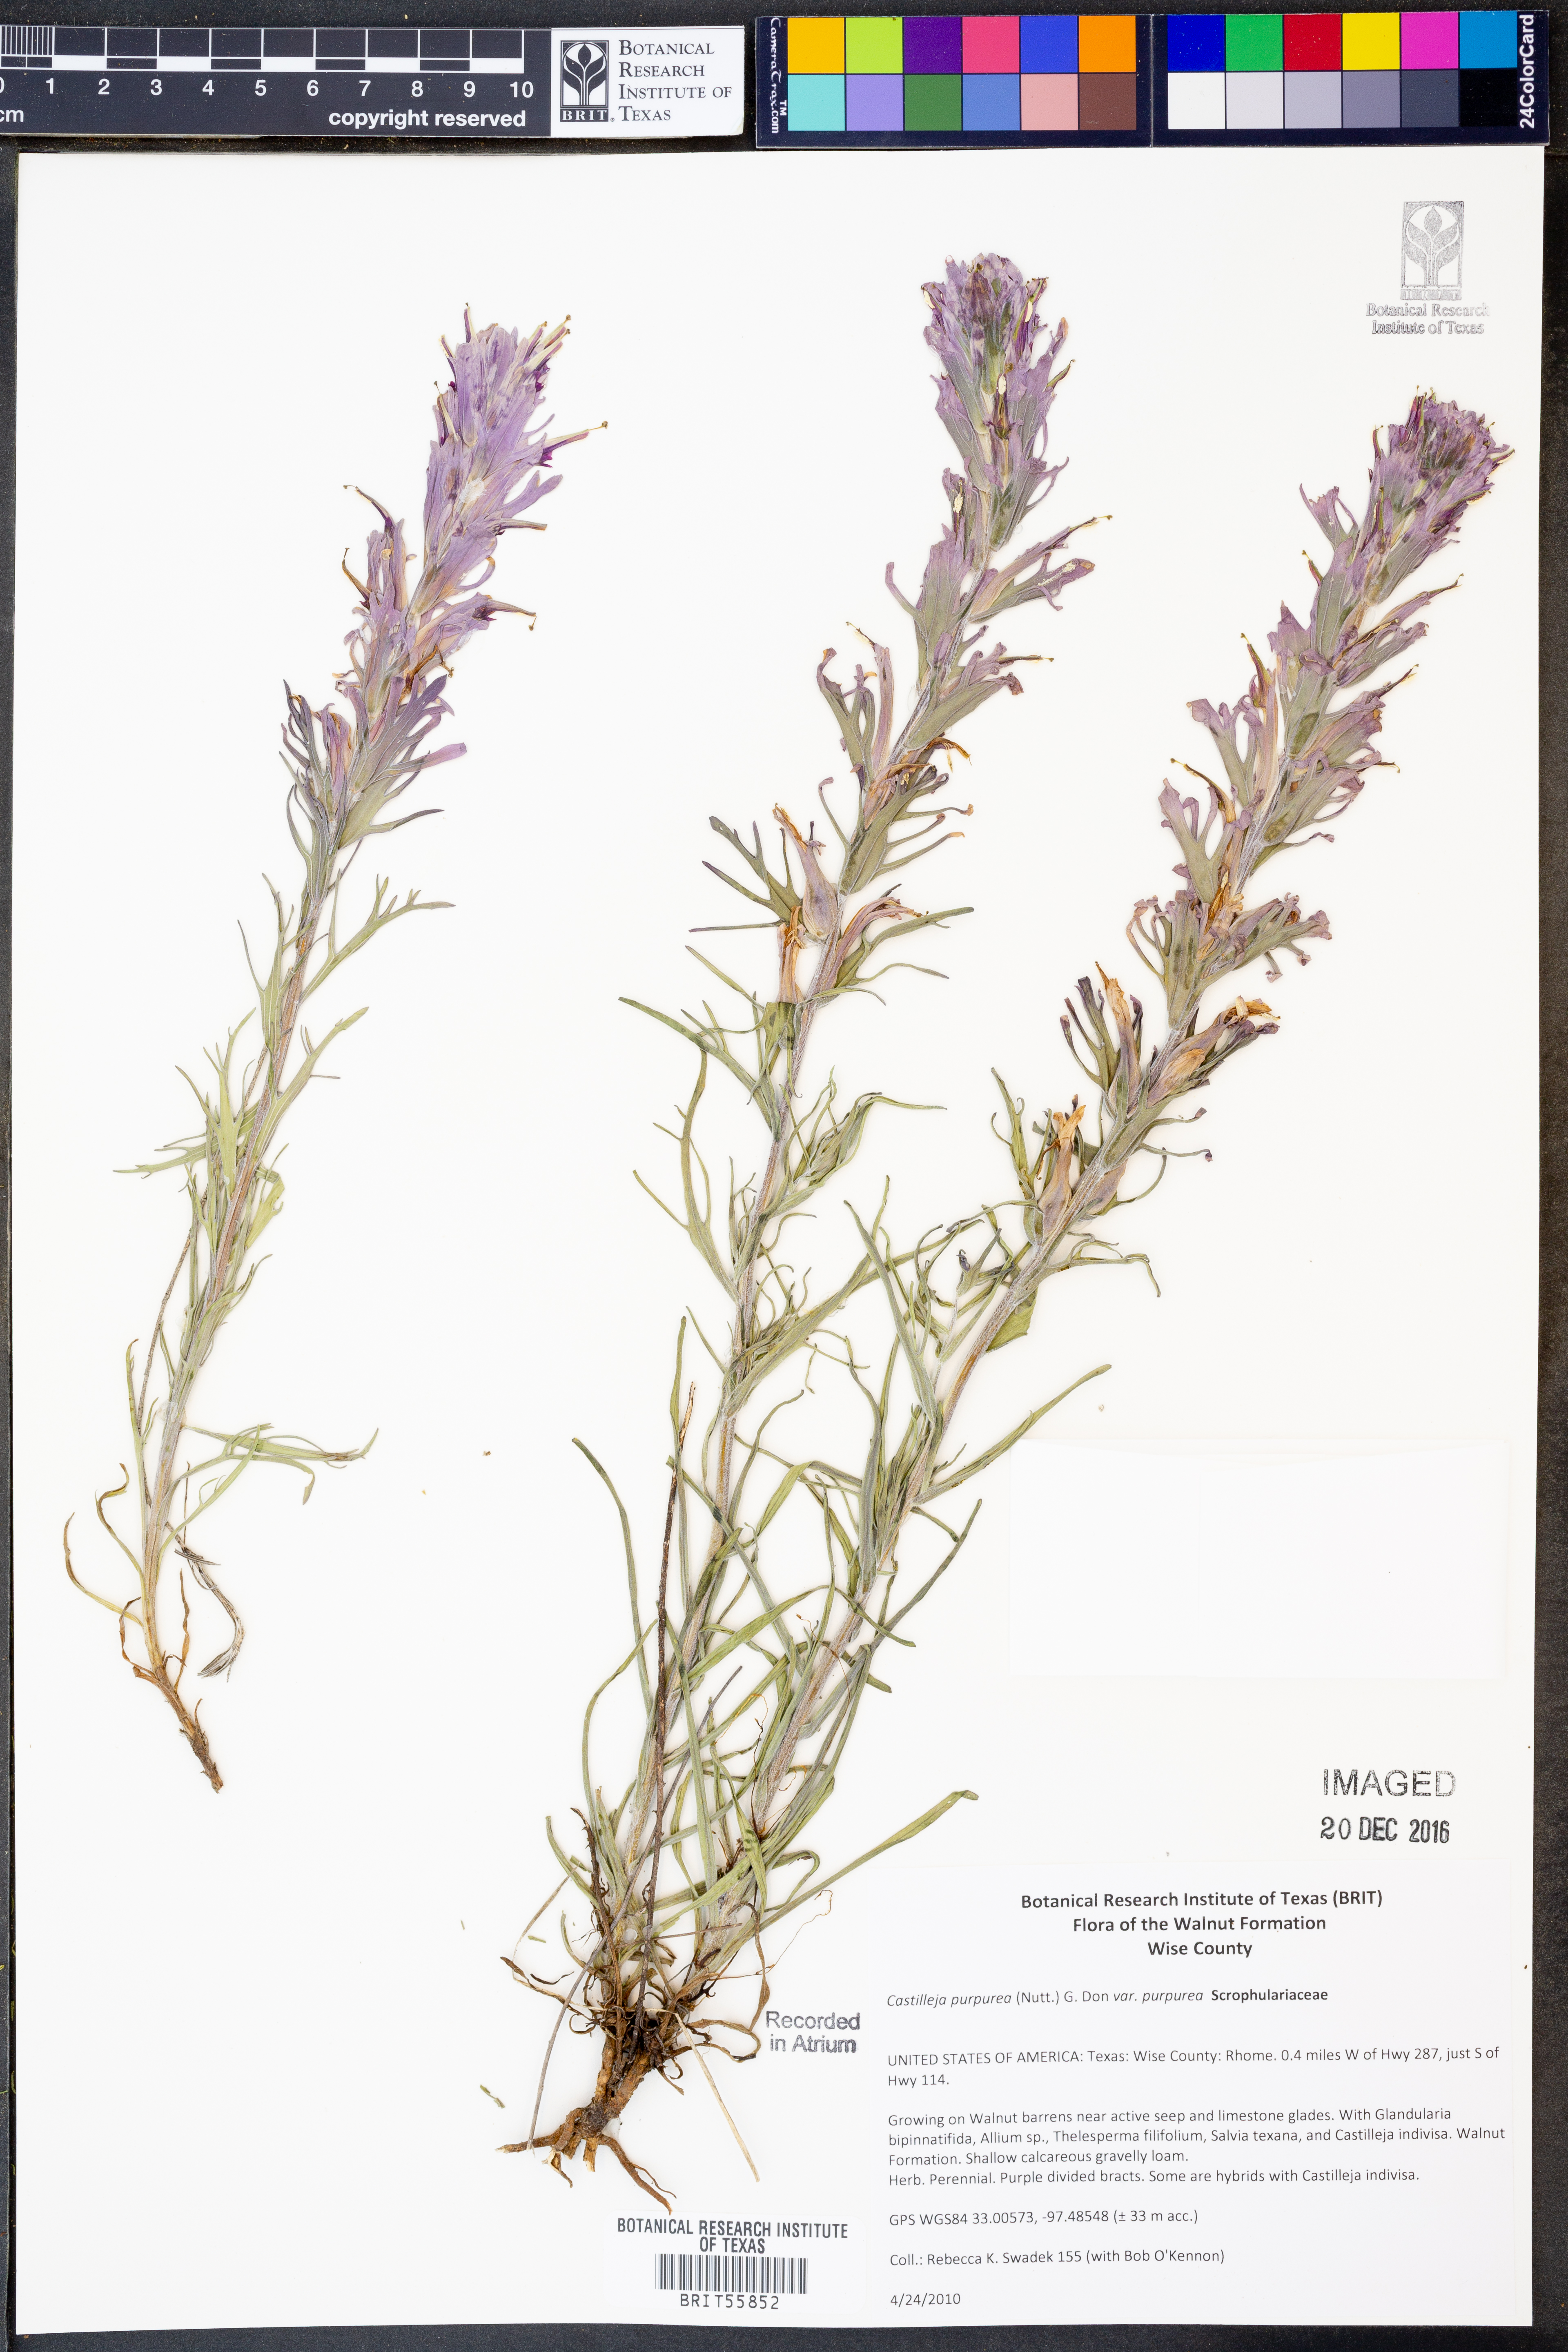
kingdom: Plantae
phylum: Tracheophyta
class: Magnoliopsida
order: Lamiales
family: Orobanchaceae
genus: Castilleja
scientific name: Castilleja purpurea
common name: Plains paintbrush
